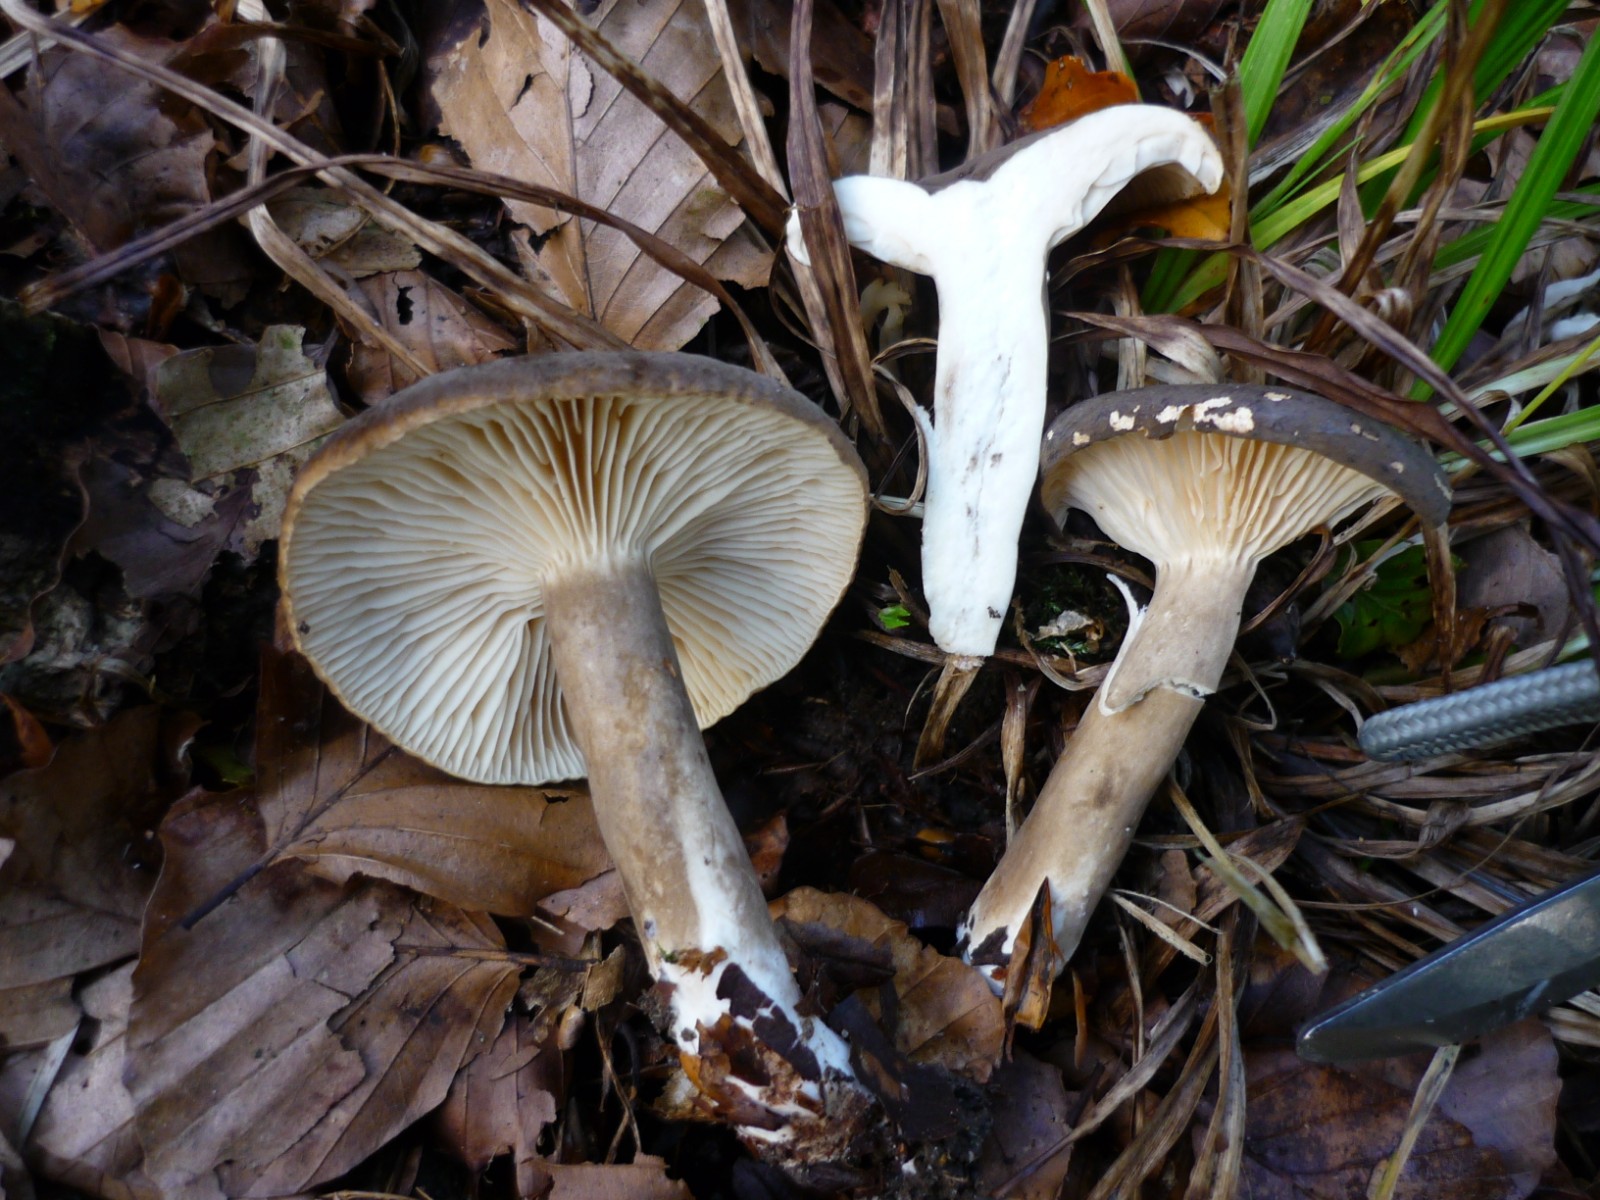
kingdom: Fungi
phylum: Basidiomycota
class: Agaricomycetes
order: Russulales
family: Russulaceae
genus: Lactarius
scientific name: Lactarius romagnesii
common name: fjernbladet mælkehat
